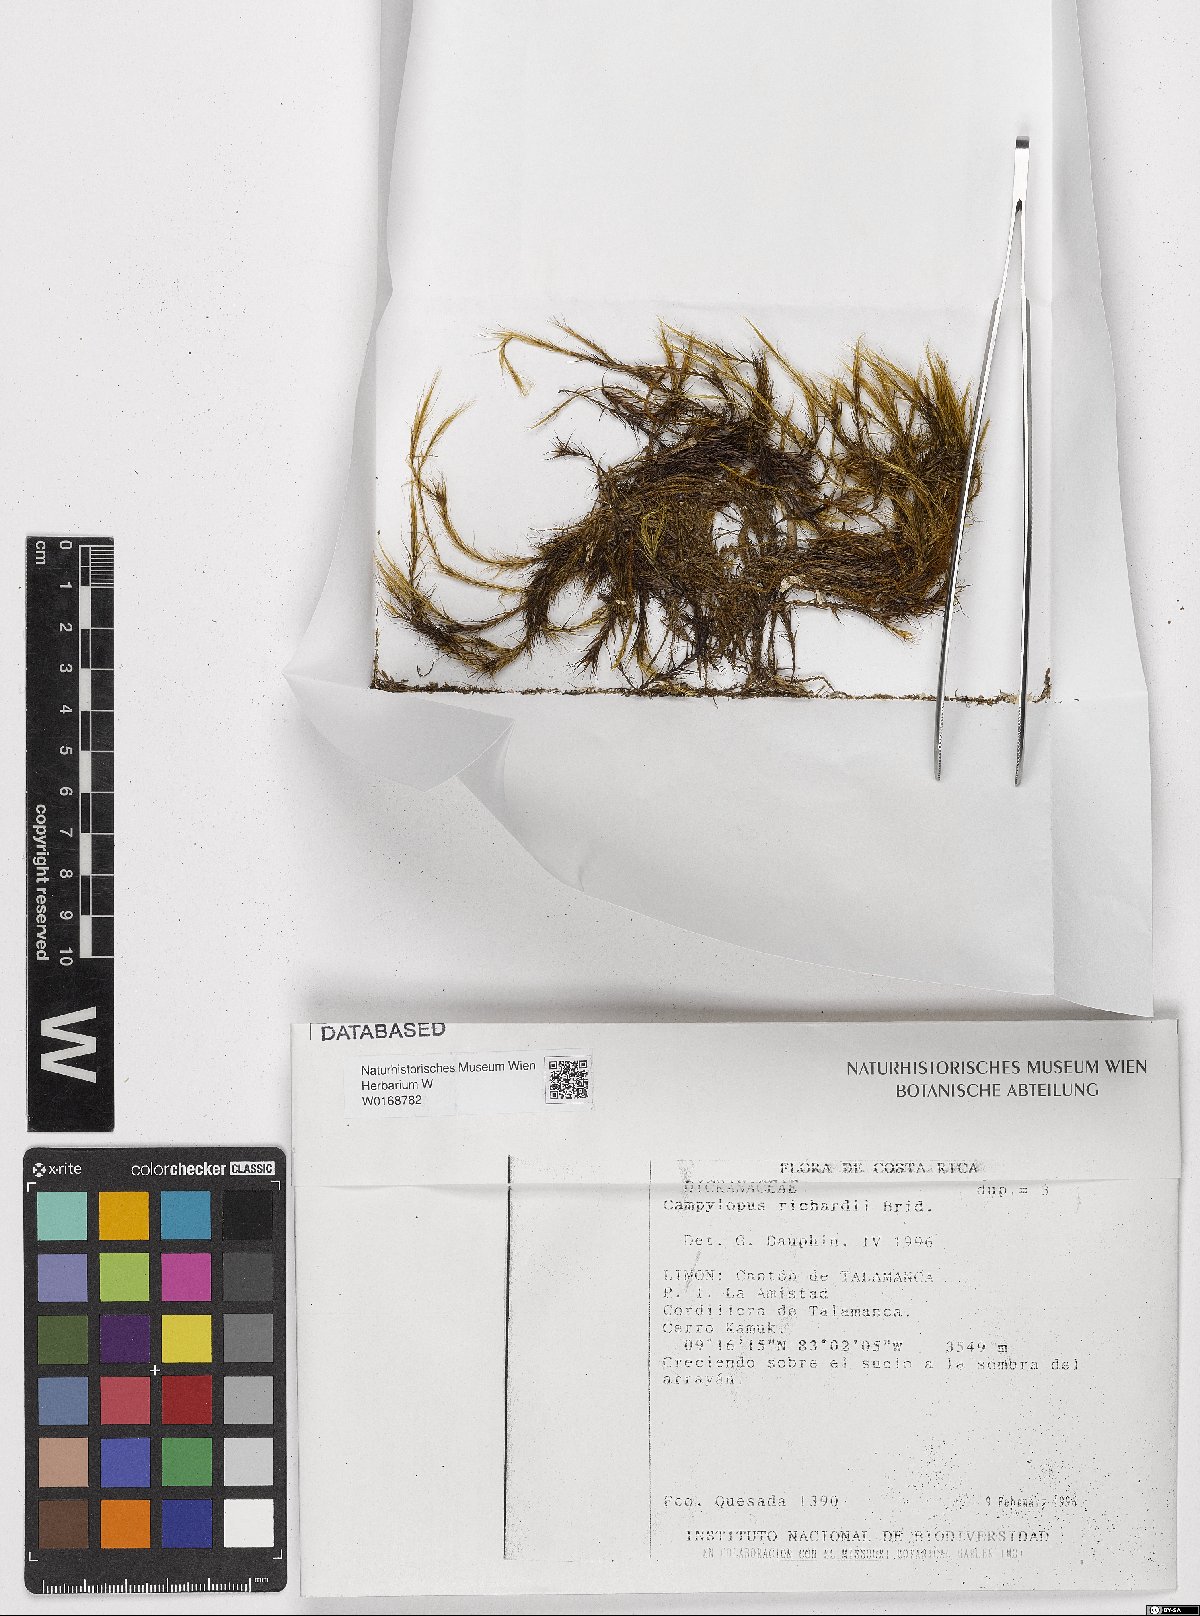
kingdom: Plantae
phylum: Bryophyta
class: Bryopsida
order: Dicranales
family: Leucobryaceae
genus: Campylopus
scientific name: Campylopus richardii
